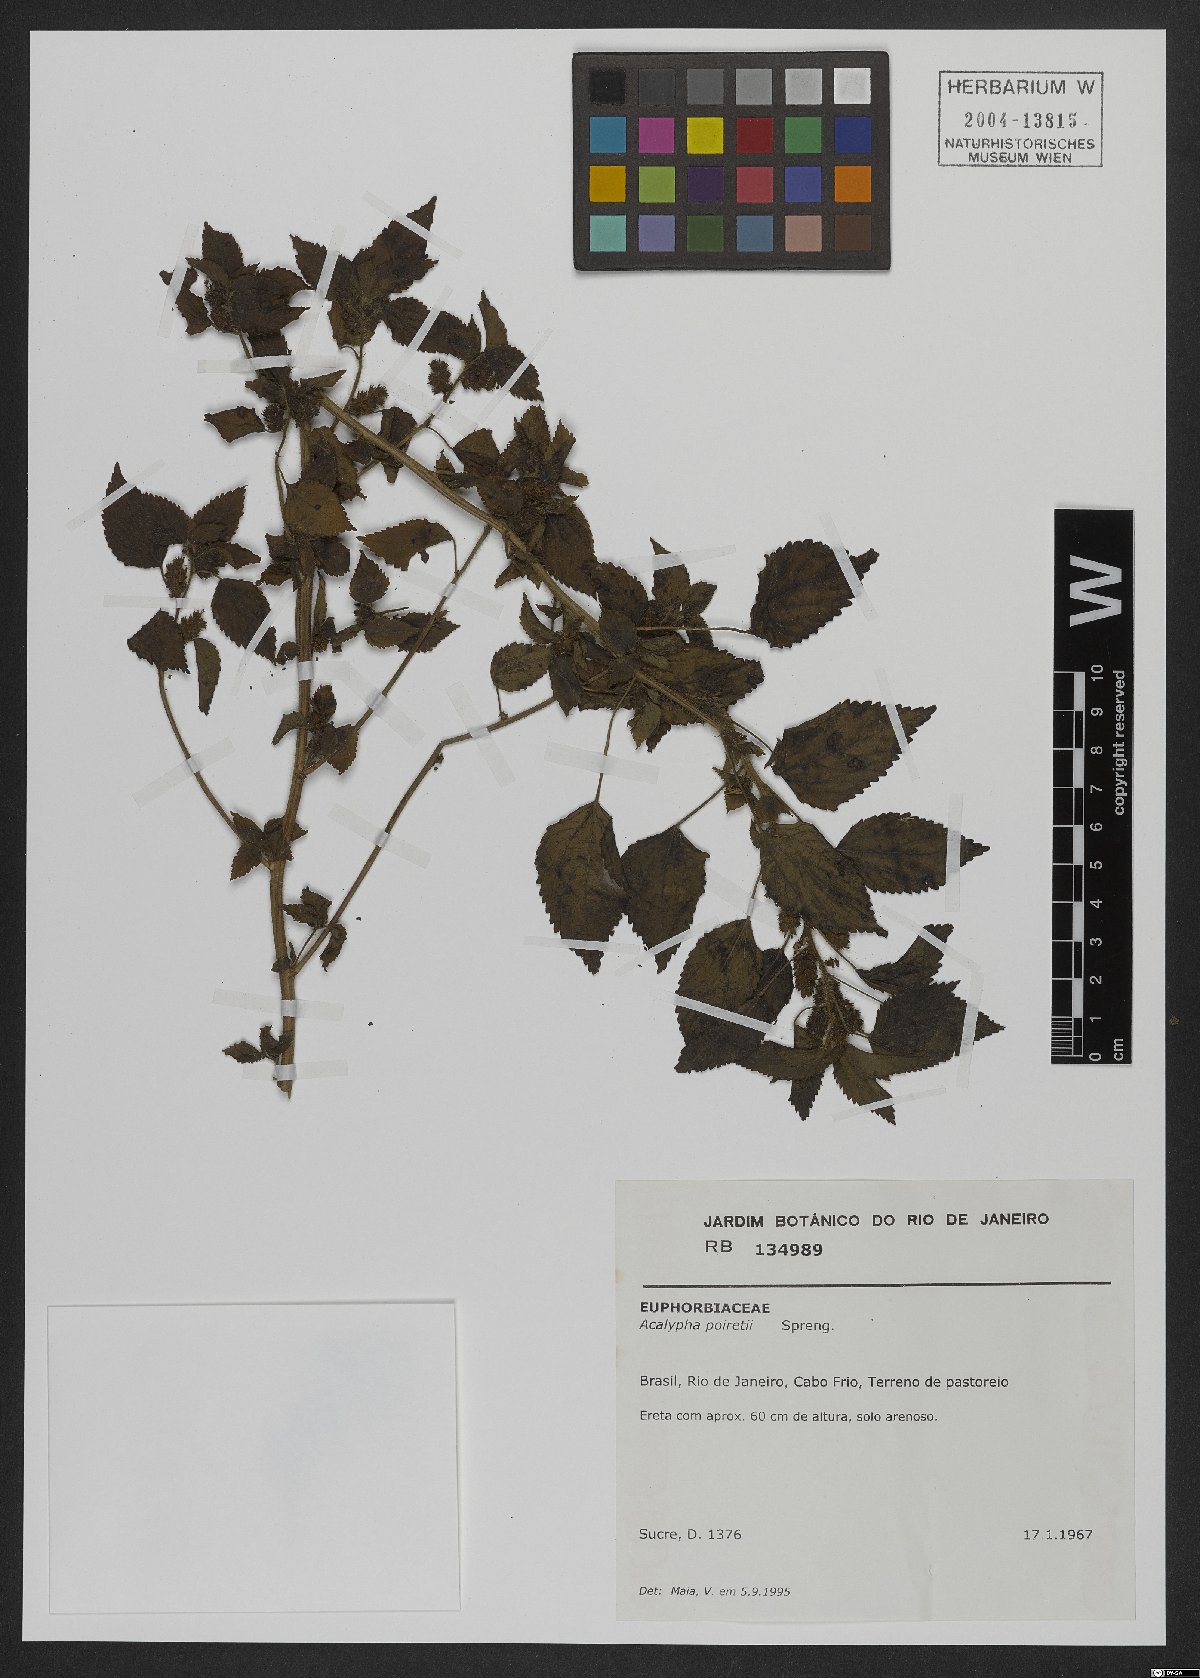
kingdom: Plantae
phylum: Tracheophyta
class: Magnoliopsida
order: Malpighiales
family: Euphorbiaceae
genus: Acalypha
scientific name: Acalypha poiretii
